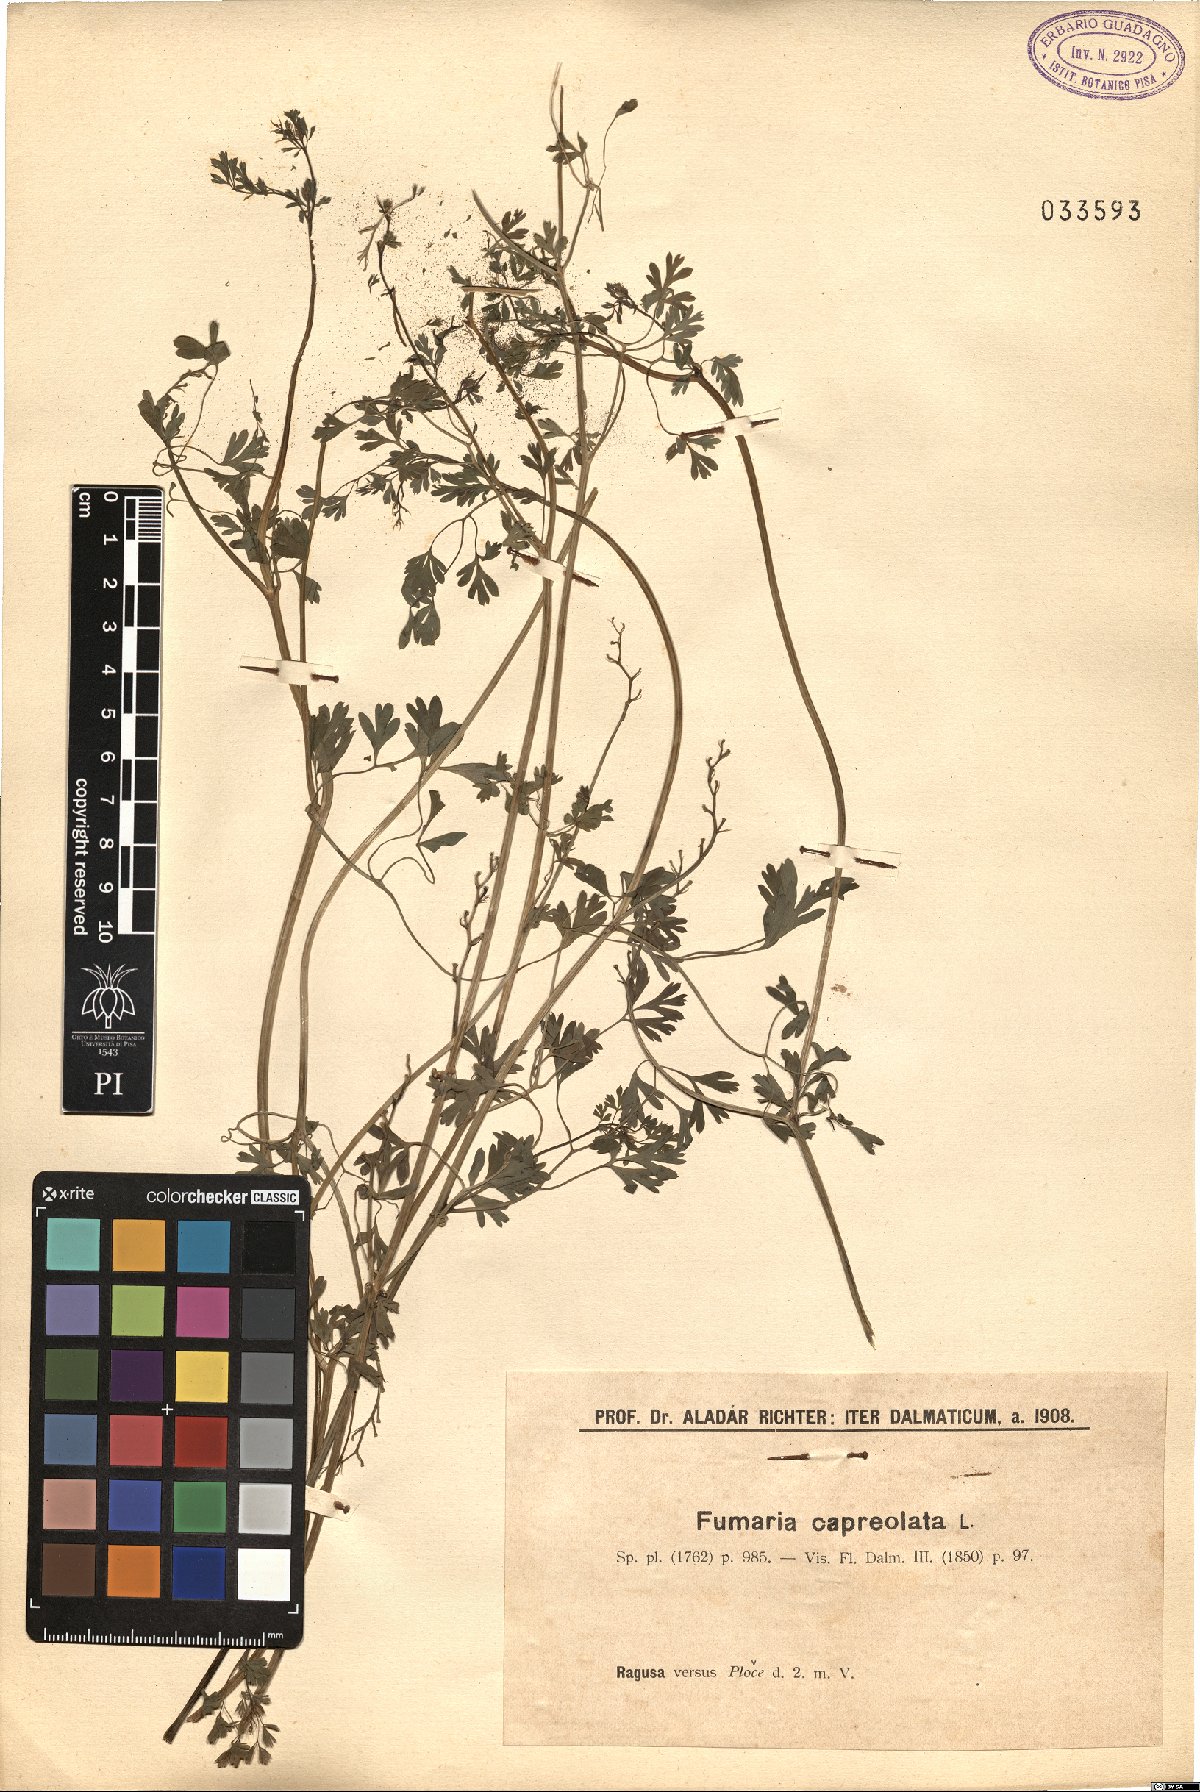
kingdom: Plantae
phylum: Tracheophyta
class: Magnoliopsida
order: Ranunculales
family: Papaveraceae
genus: Fumaria
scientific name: Fumaria capreolata
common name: White ramping-fumitory
